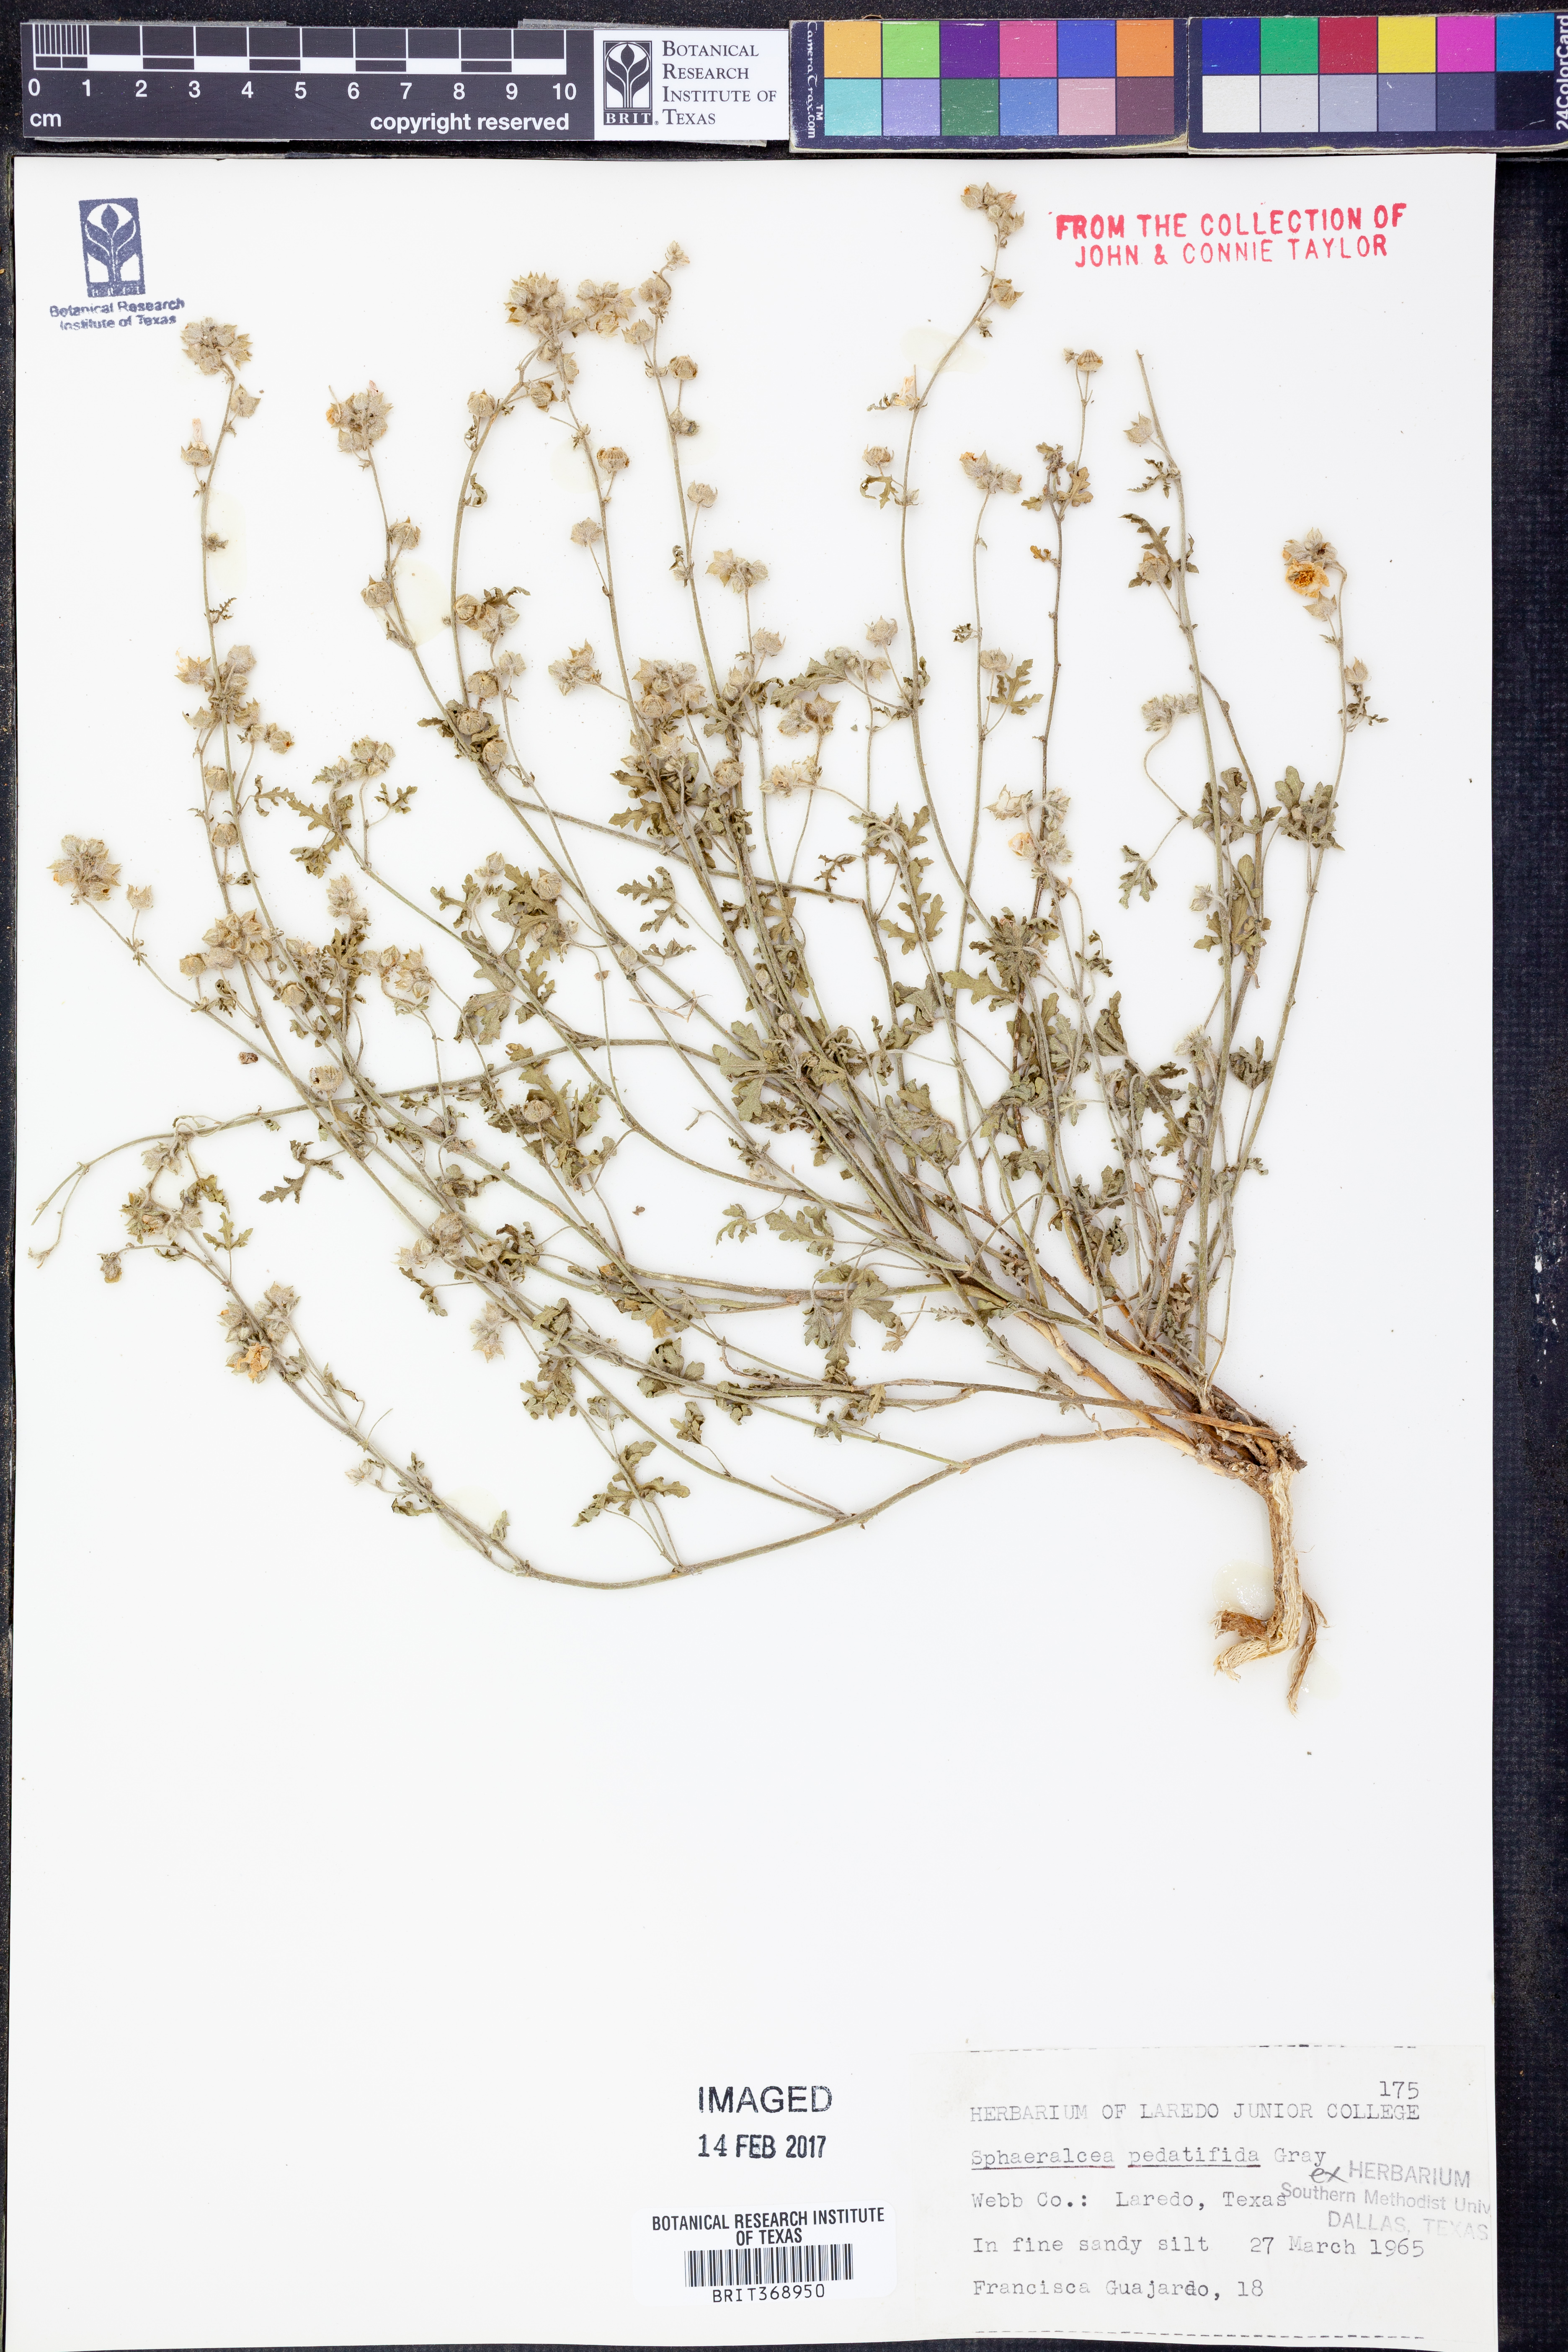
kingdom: Plantae
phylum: Tracheophyta
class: Magnoliopsida
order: Malvales
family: Malvaceae
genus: Sphaeralcea
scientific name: Sphaeralcea pedatifida
